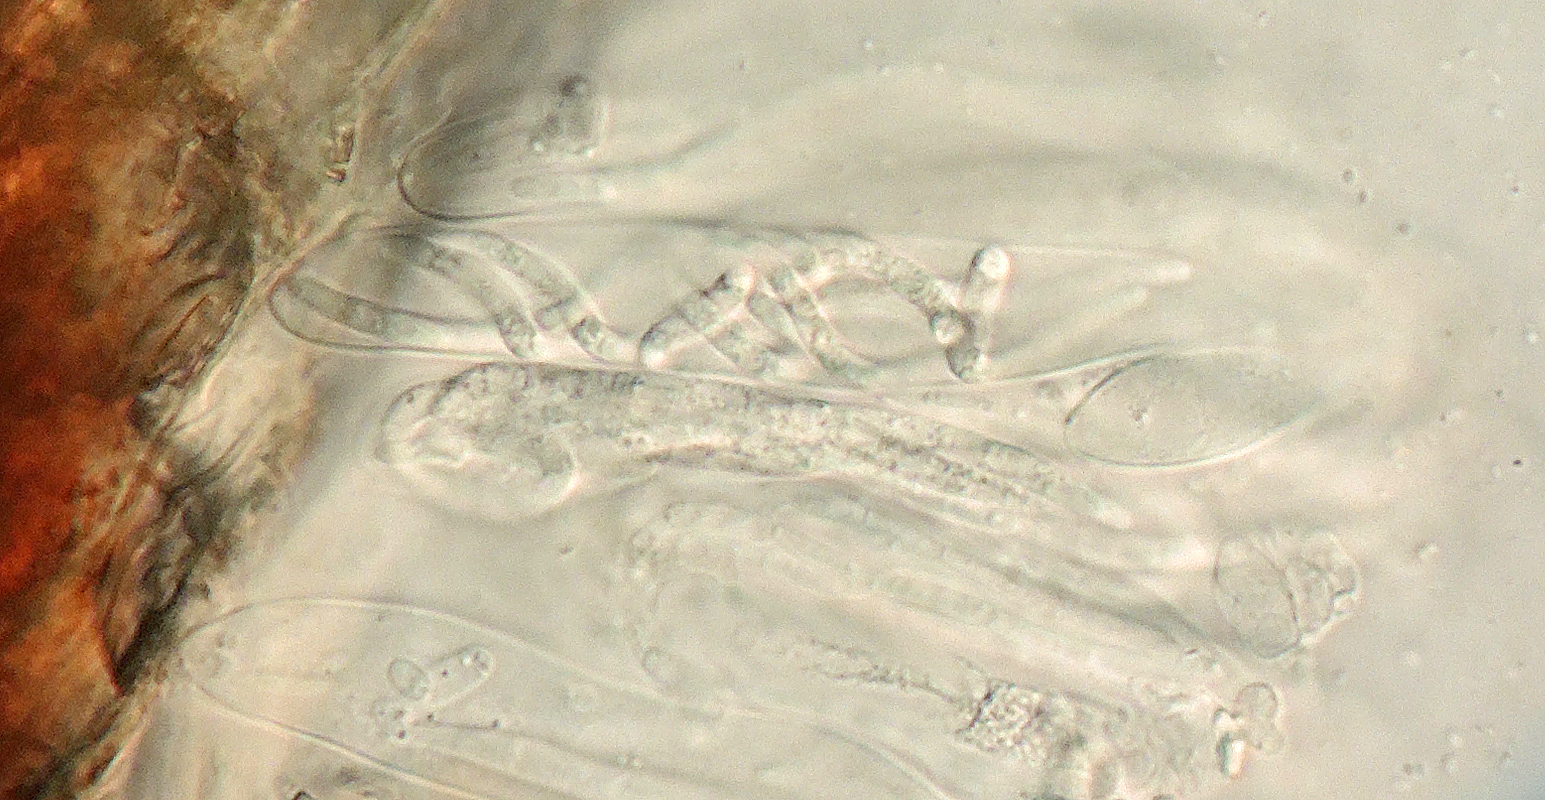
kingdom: Fungi
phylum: Ascomycota
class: Dothideomycetes
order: Tubeufiales
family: Tubeufiaceae
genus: Taphrophila
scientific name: Taphrophila trichella
